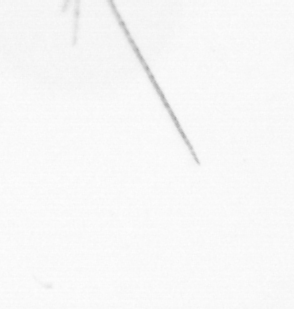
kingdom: Chromista
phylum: Ochrophyta
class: Bacillariophyceae
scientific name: Bacillariophyceae
